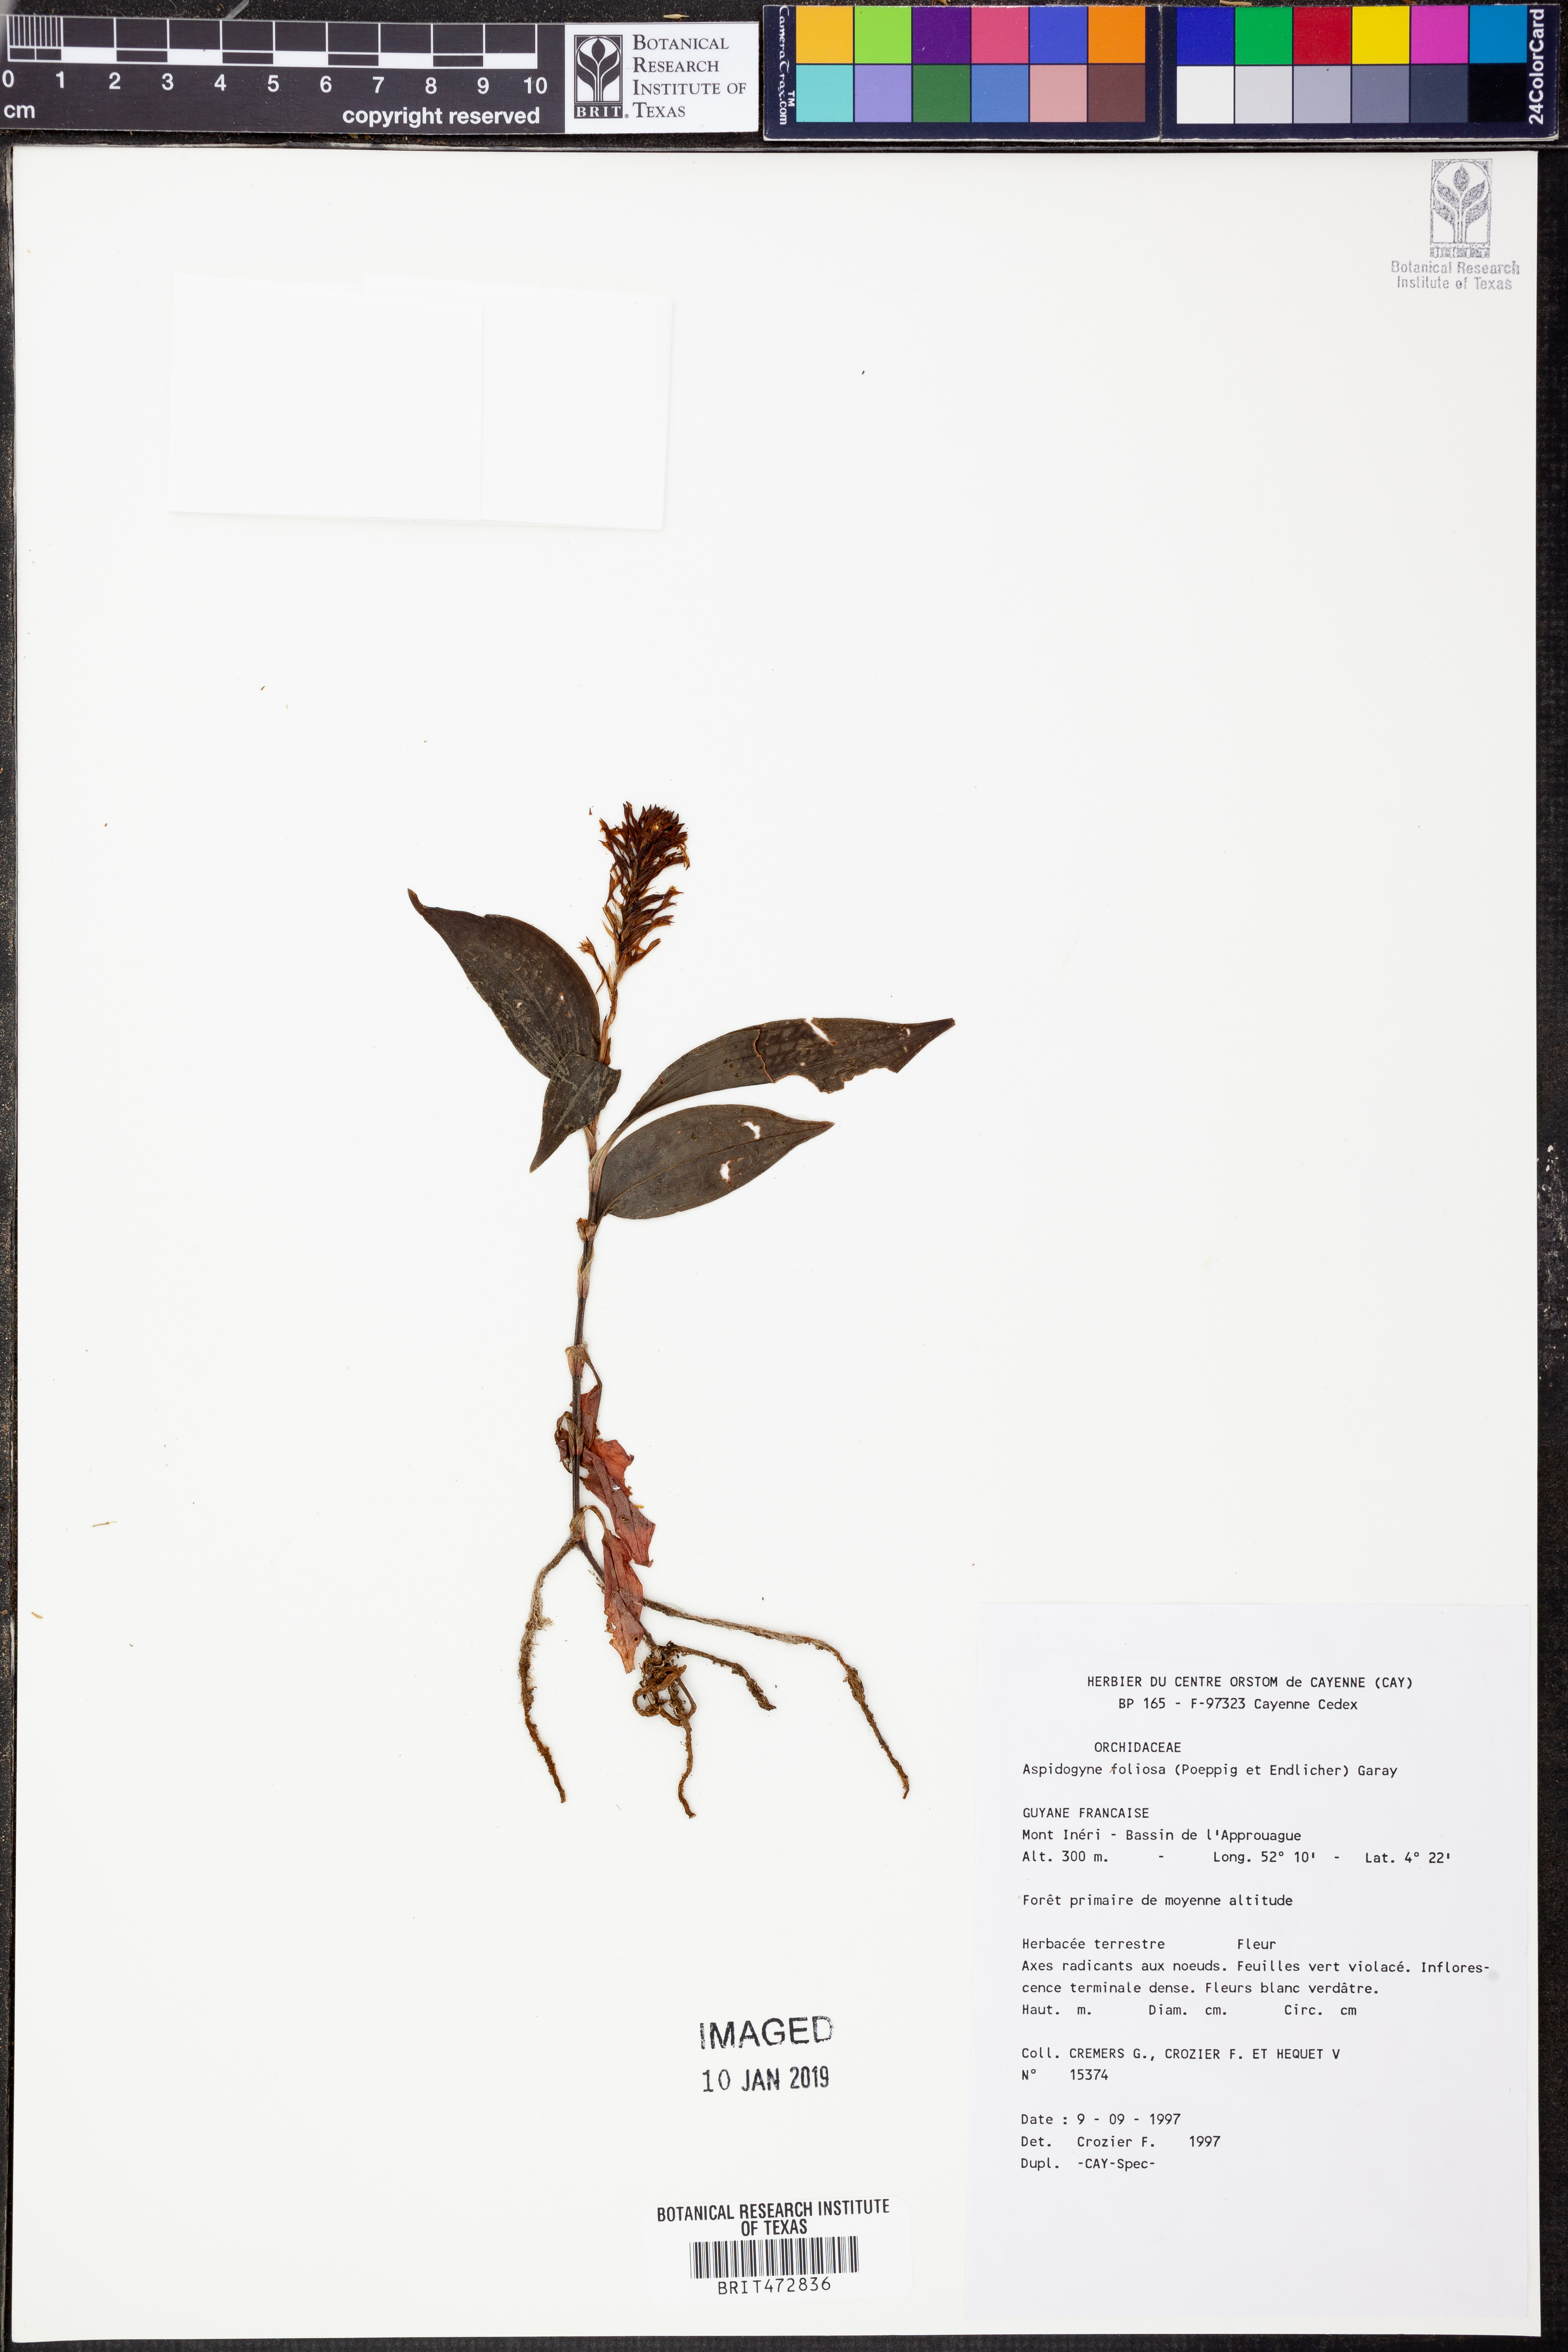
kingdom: Plantae
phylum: Tracheophyta
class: Liliopsida
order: Asparagales
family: Orchidaceae
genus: Aspidogyne
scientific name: Aspidogyne foliosa
